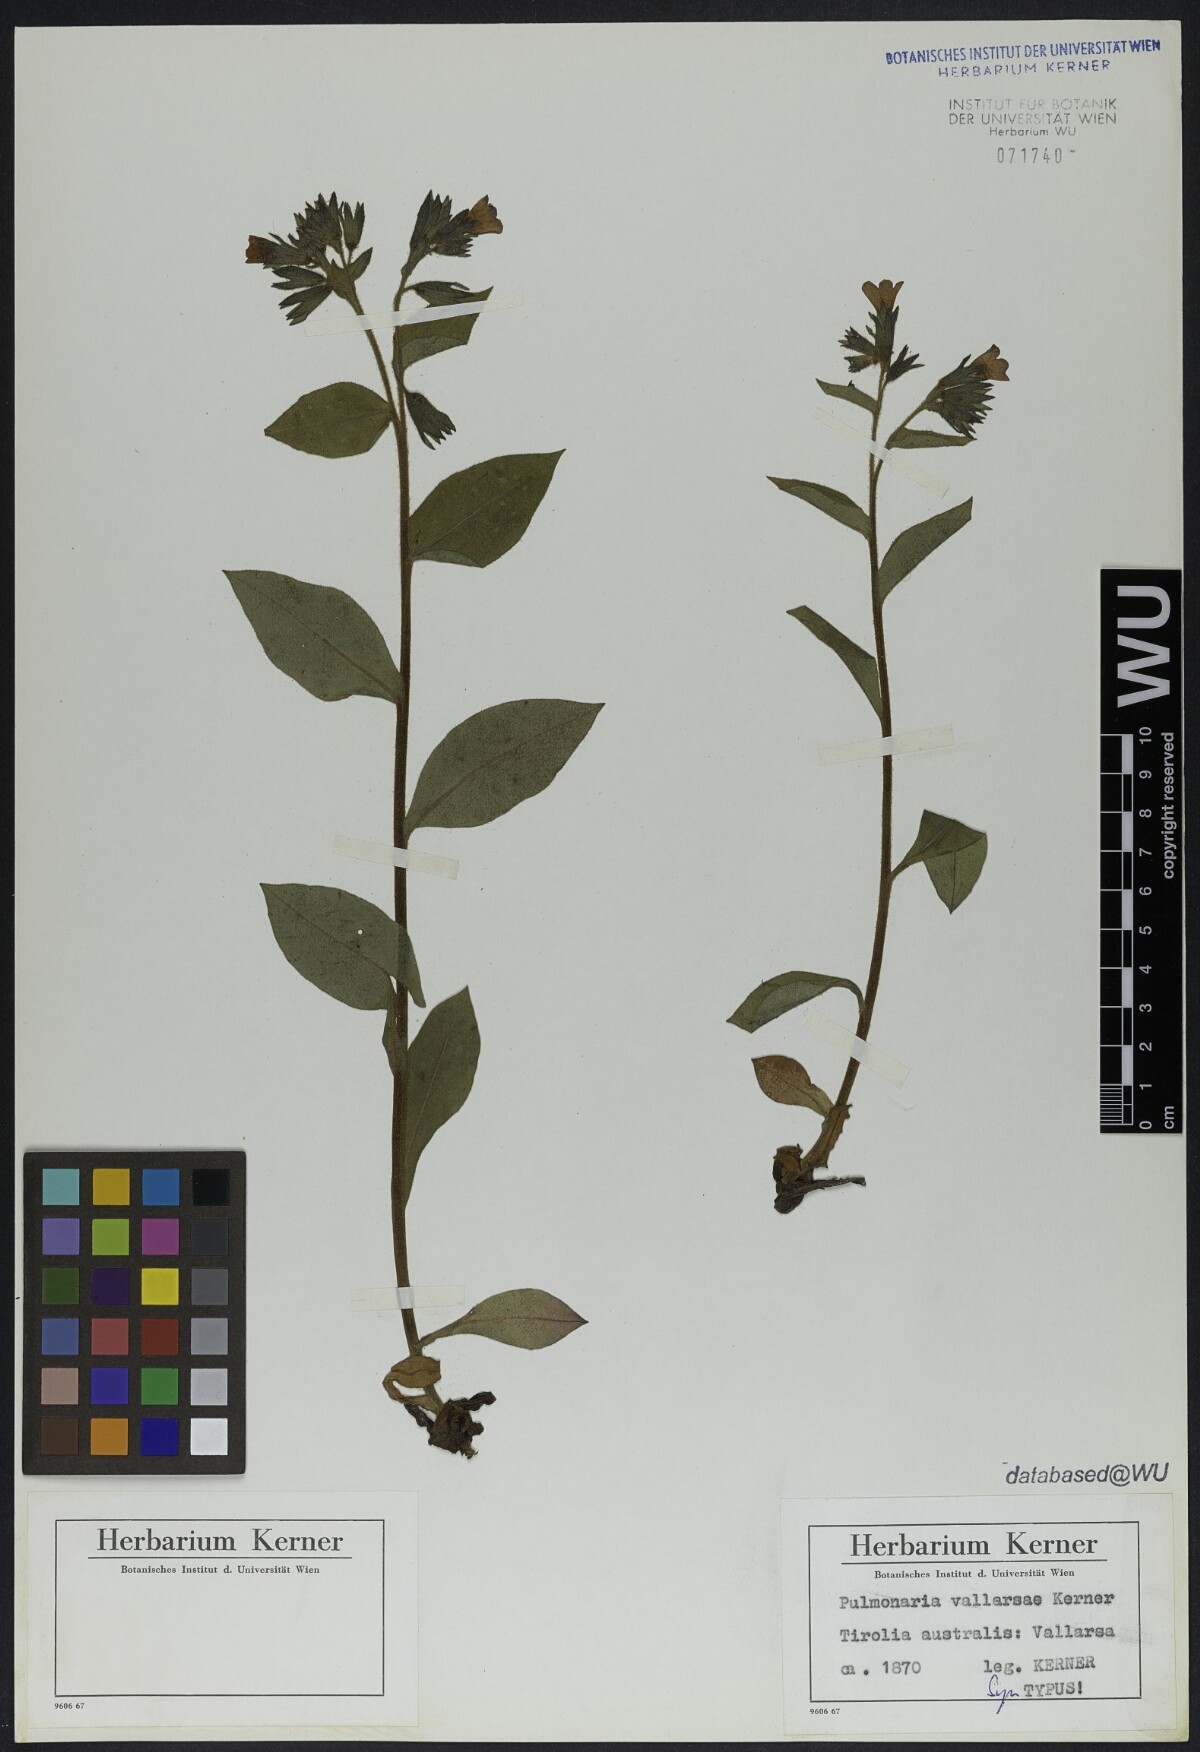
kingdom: Plantae
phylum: Tracheophyta
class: Magnoliopsida
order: Boraginales
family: Boraginaceae
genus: Pulmonaria
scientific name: Pulmonaria hirta
